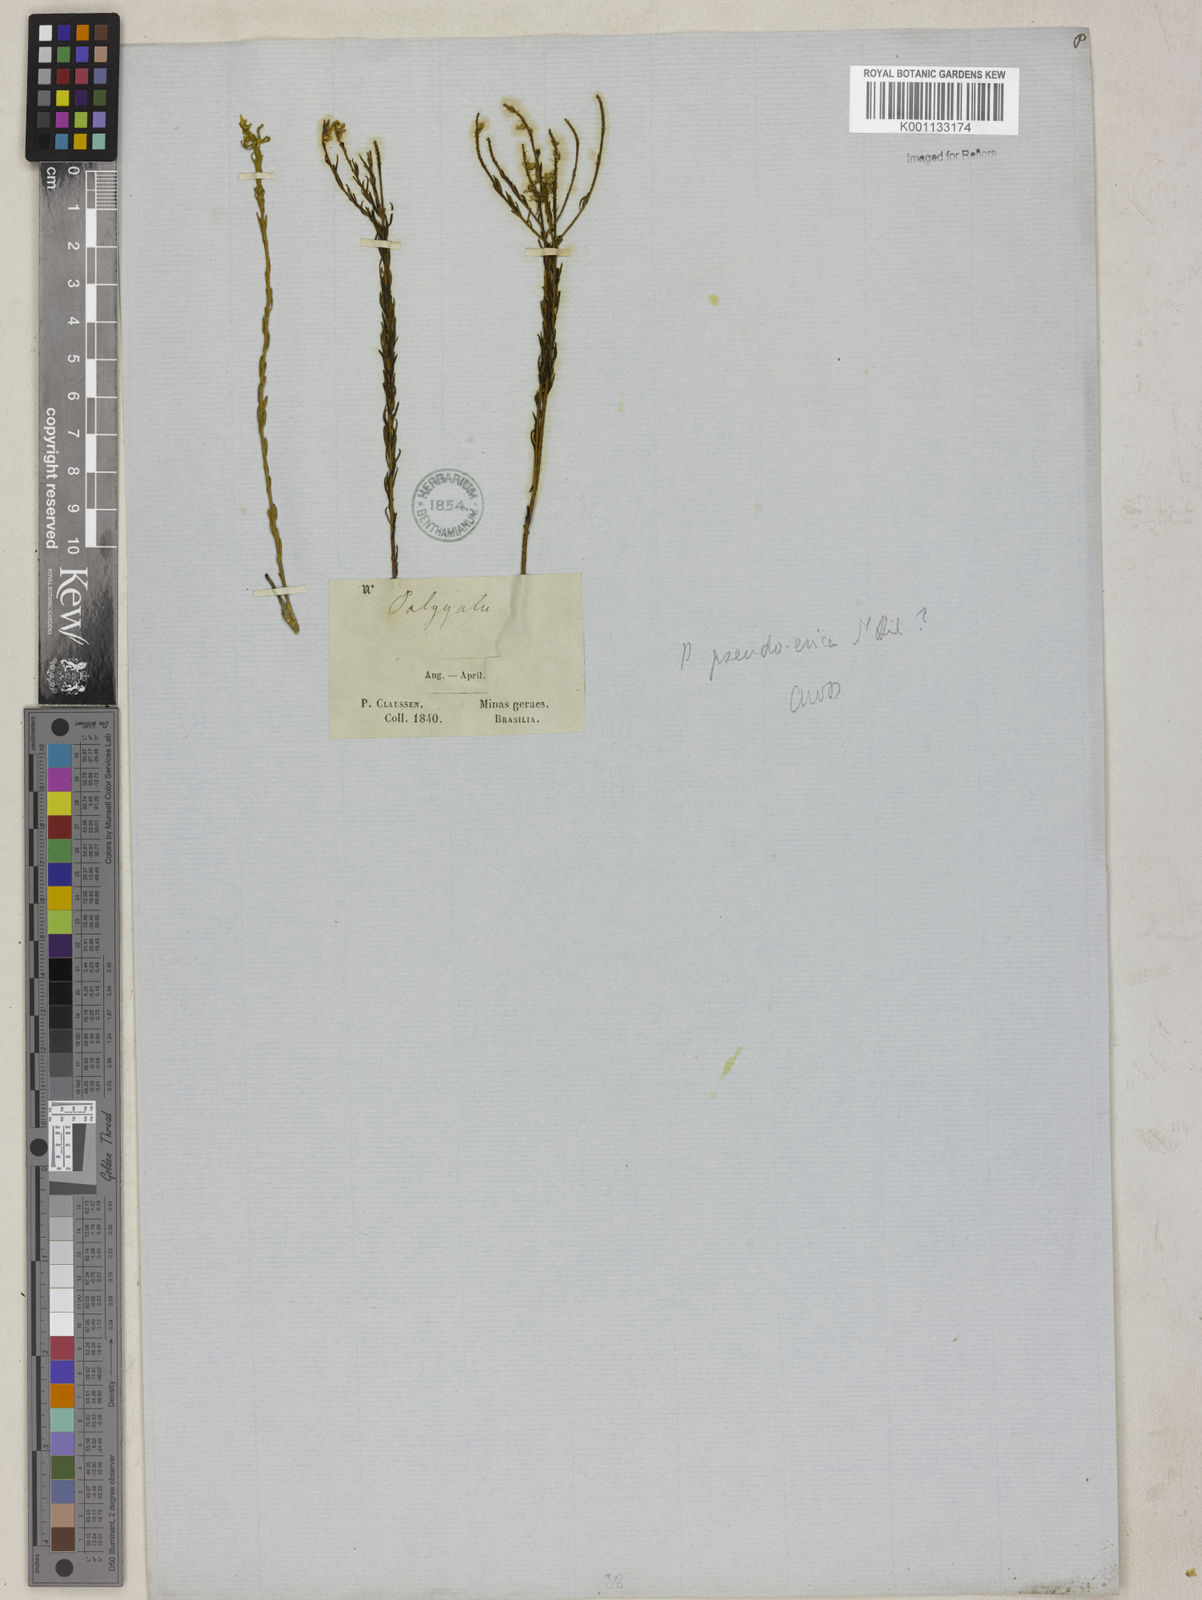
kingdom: Plantae
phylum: Tracheophyta
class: Magnoliopsida
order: Fabales
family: Polygalaceae
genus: Polygala
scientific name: Polygala pseudoerica
